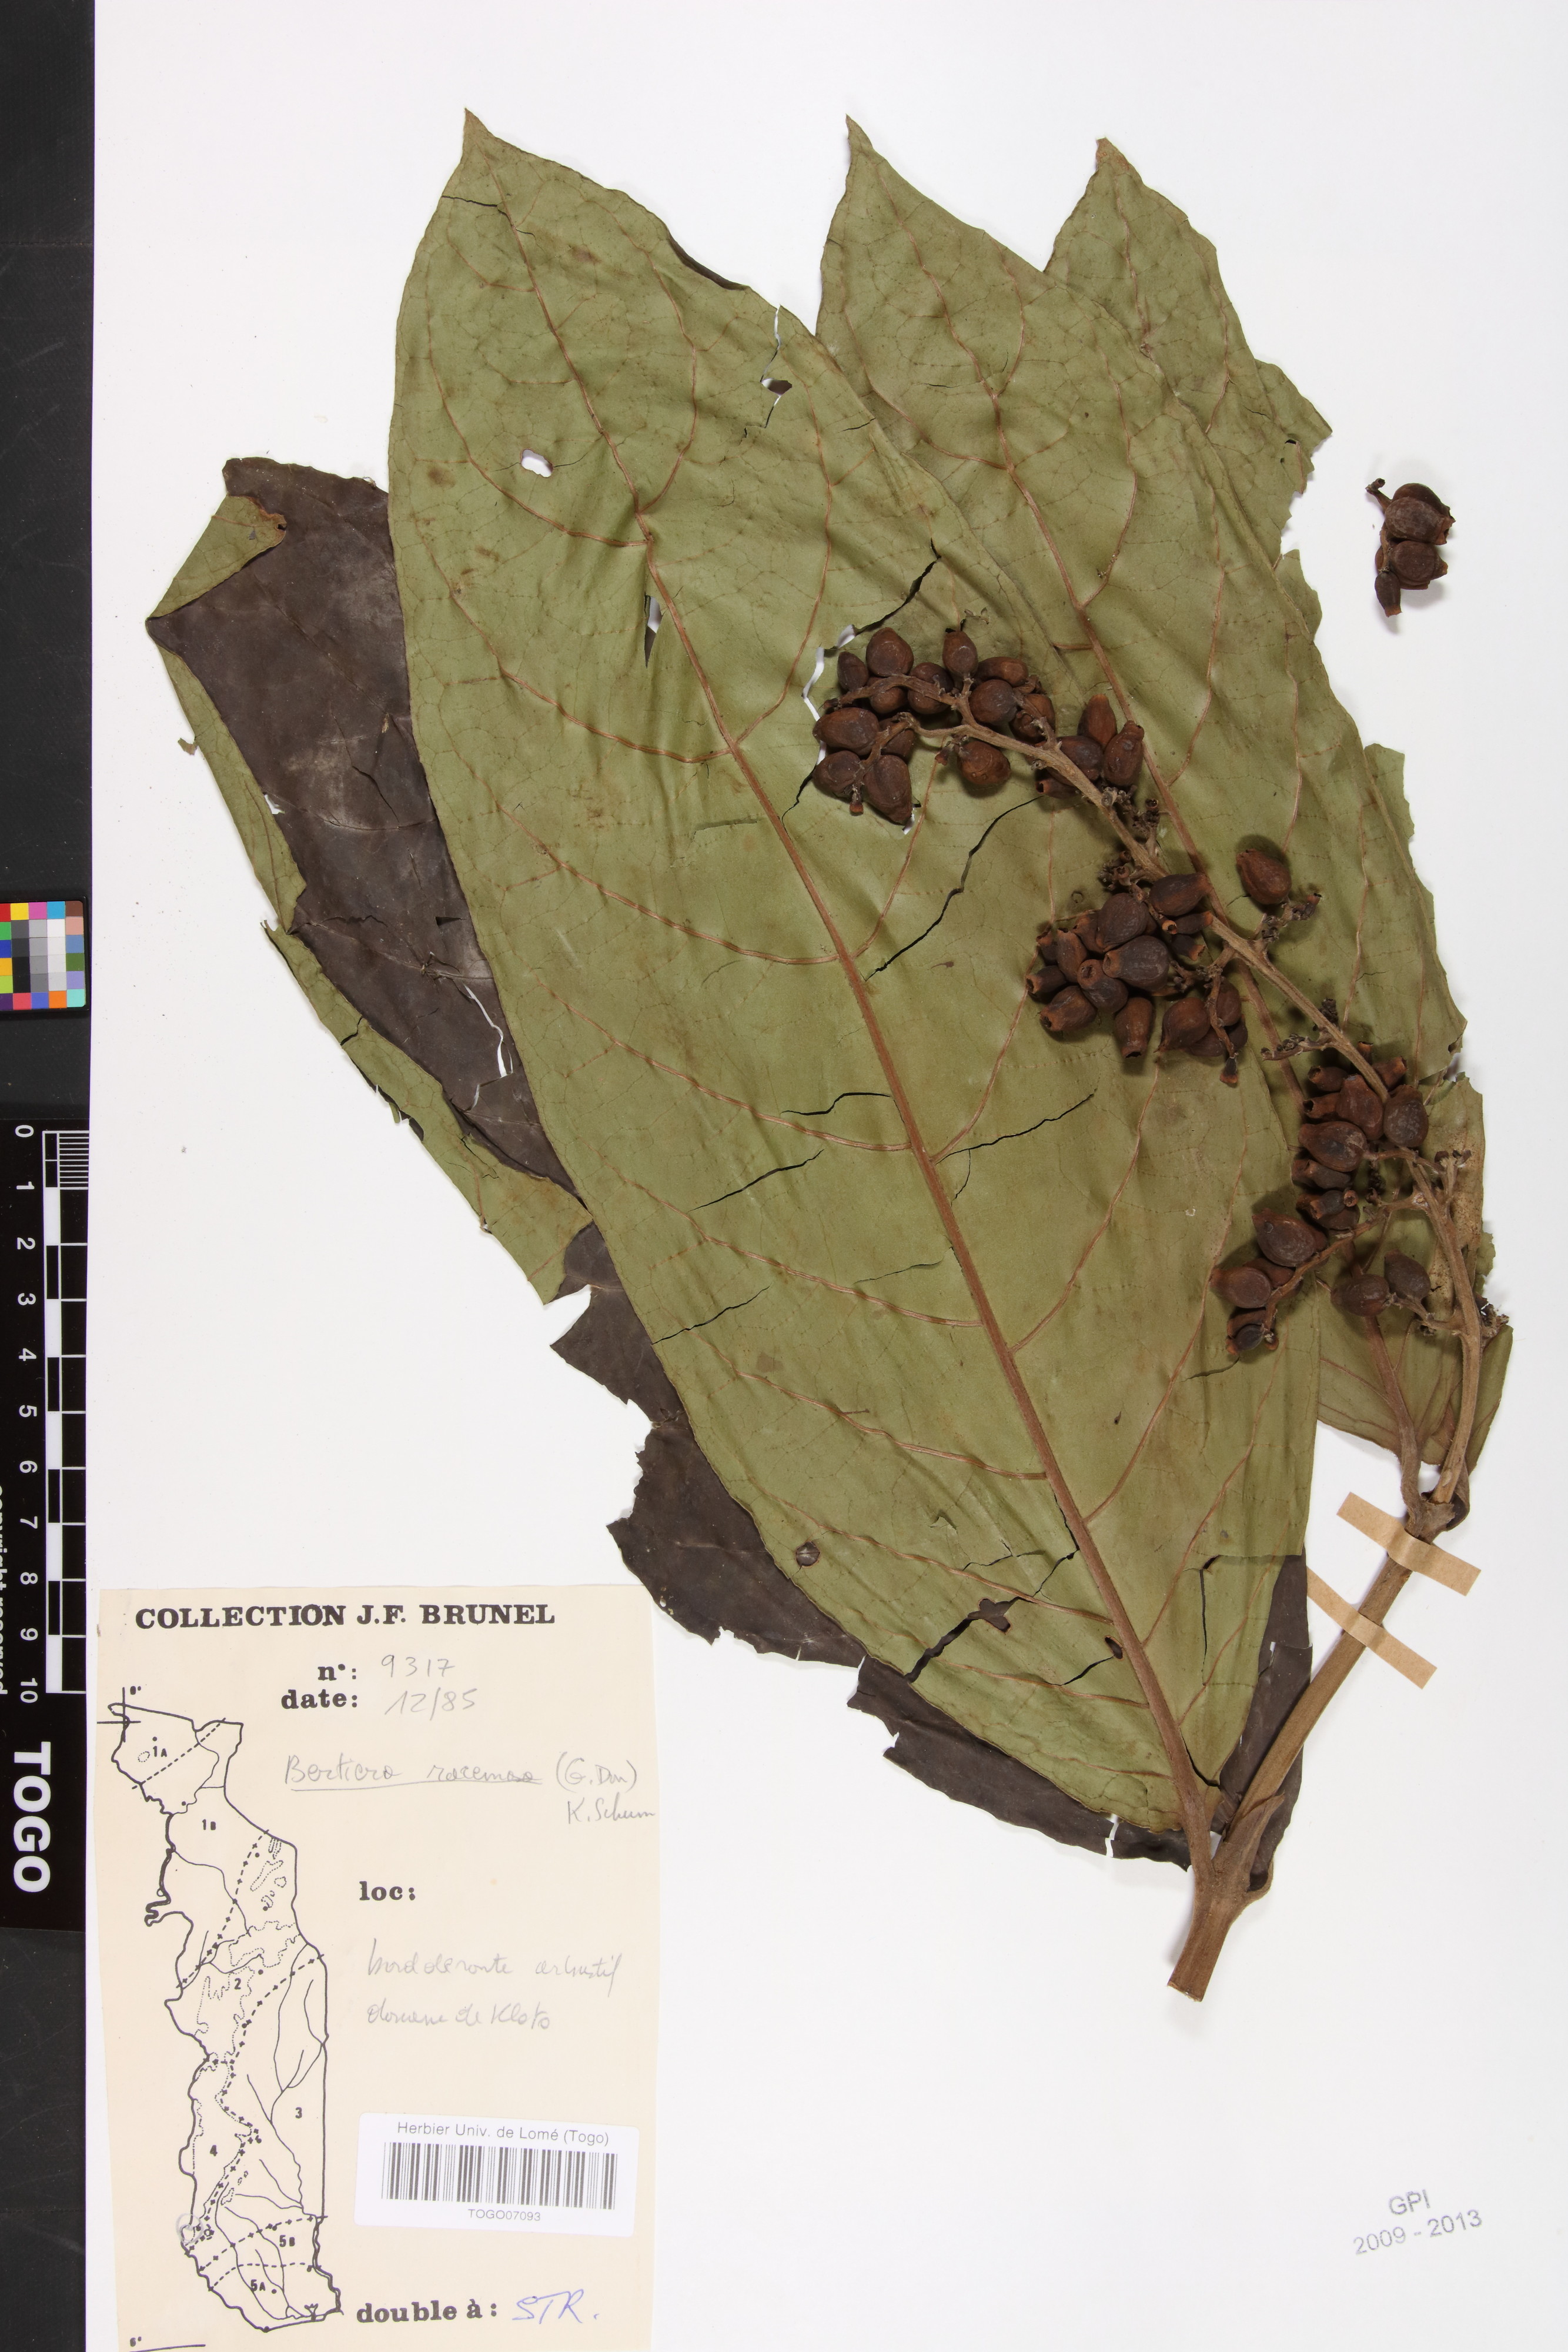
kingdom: Plantae
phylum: Tracheophyta
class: Magnoliopsida
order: Gentianales
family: Rubiaceae
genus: Bertiera
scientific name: Bertiera racemosa
